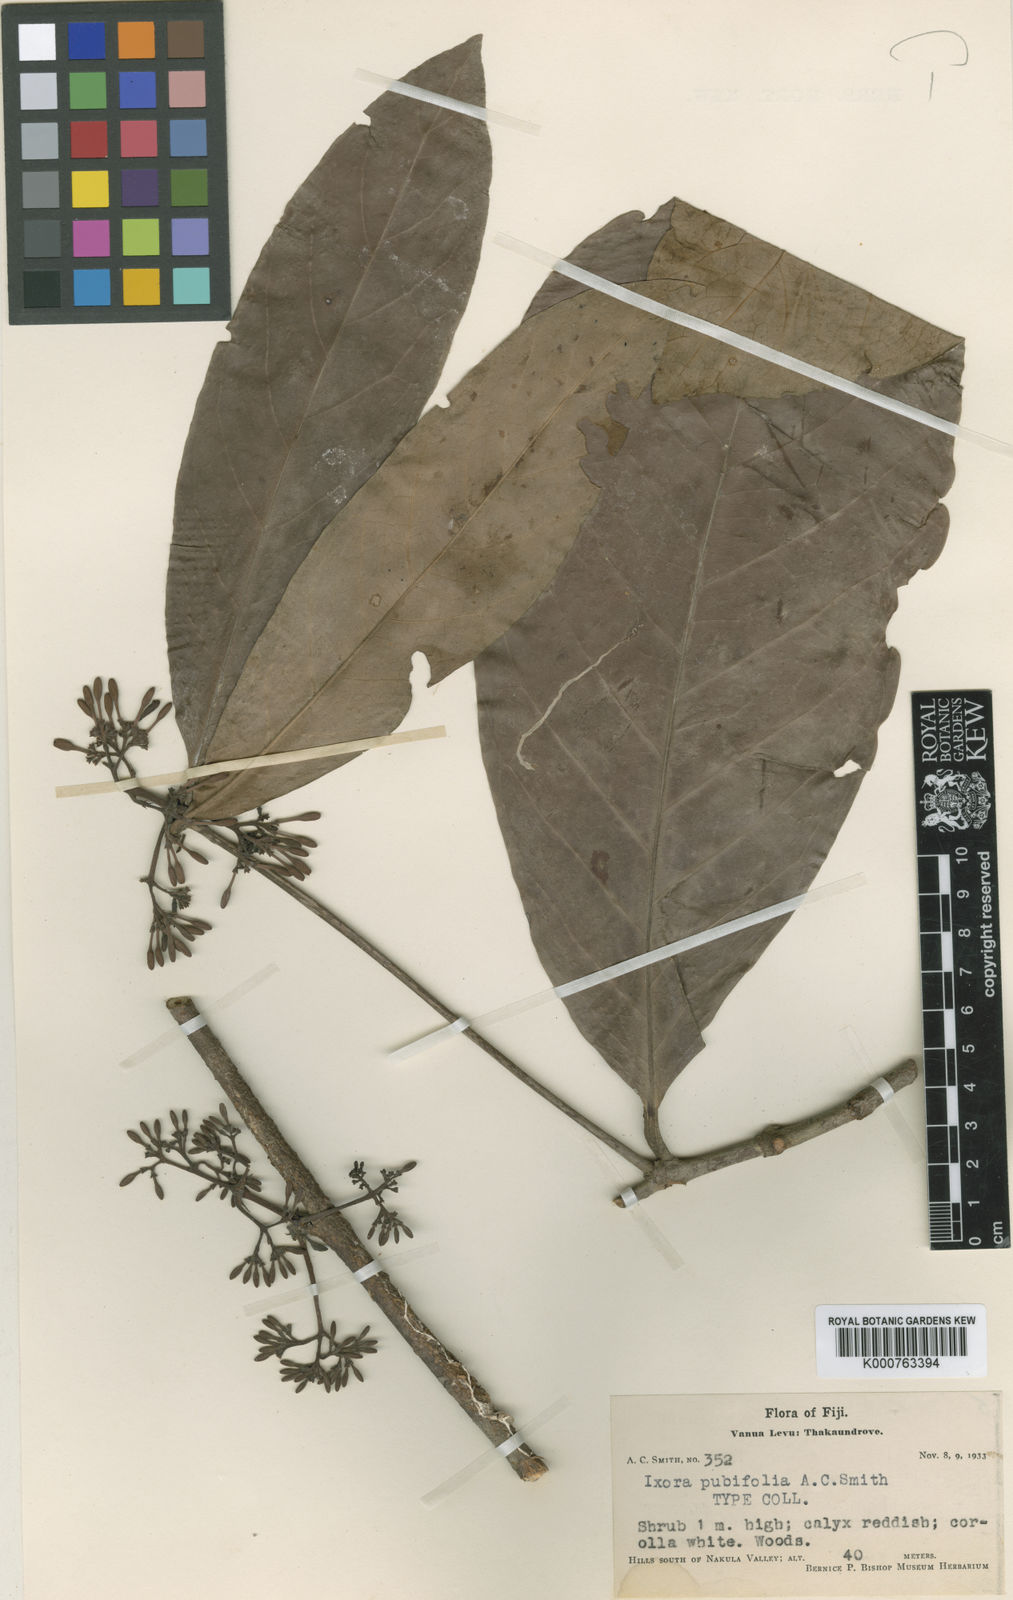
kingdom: Plantae
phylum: Tracheophyta
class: Magnoliopsida
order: Gentianales
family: Rubiaceae
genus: Ixora
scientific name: Ixora pubifolia
